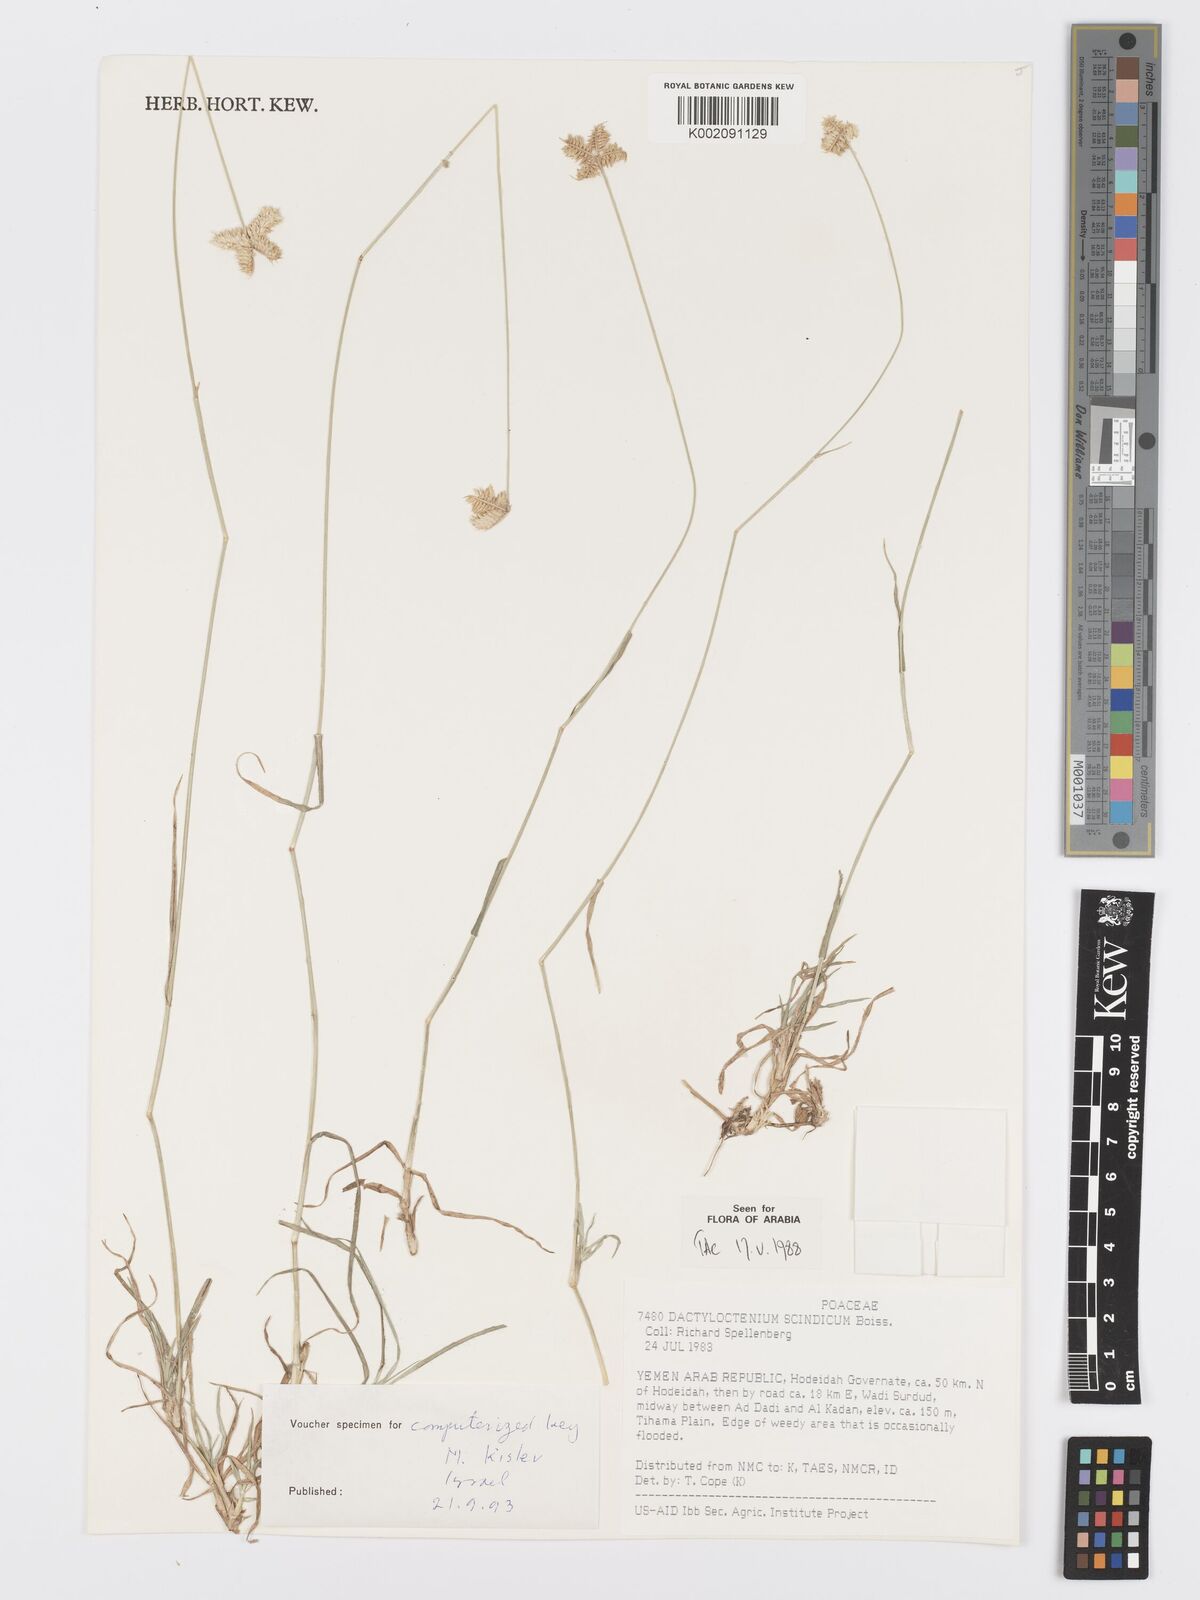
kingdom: Plantae
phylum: Tracheophyta
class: Liliopsida
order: Poales
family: Poaceae
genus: Dactyloctenium
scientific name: Dactyloctenium scindicum
